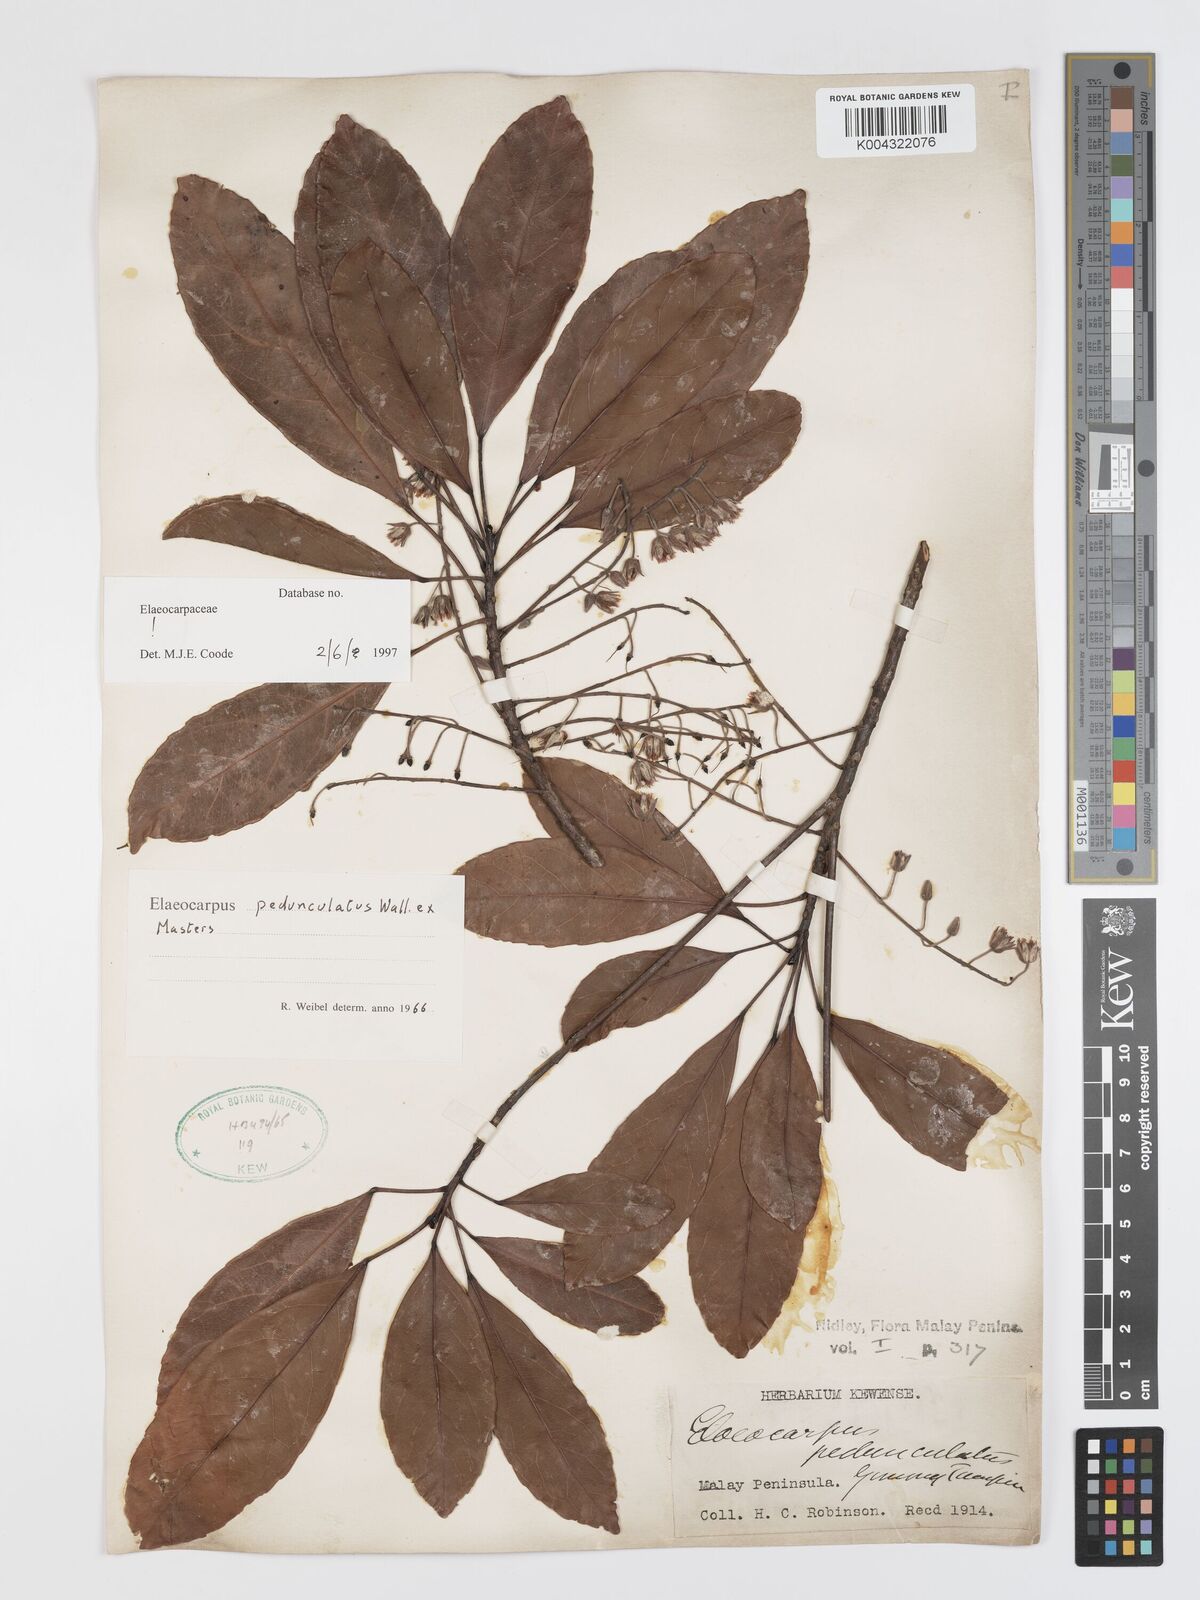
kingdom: Plantae
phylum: Tracheophyta
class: Magnoliopsida
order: Oxalidales
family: Elaeocarpaceae
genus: Elaeocarpus
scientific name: Elaeocarpus pedunculatus
